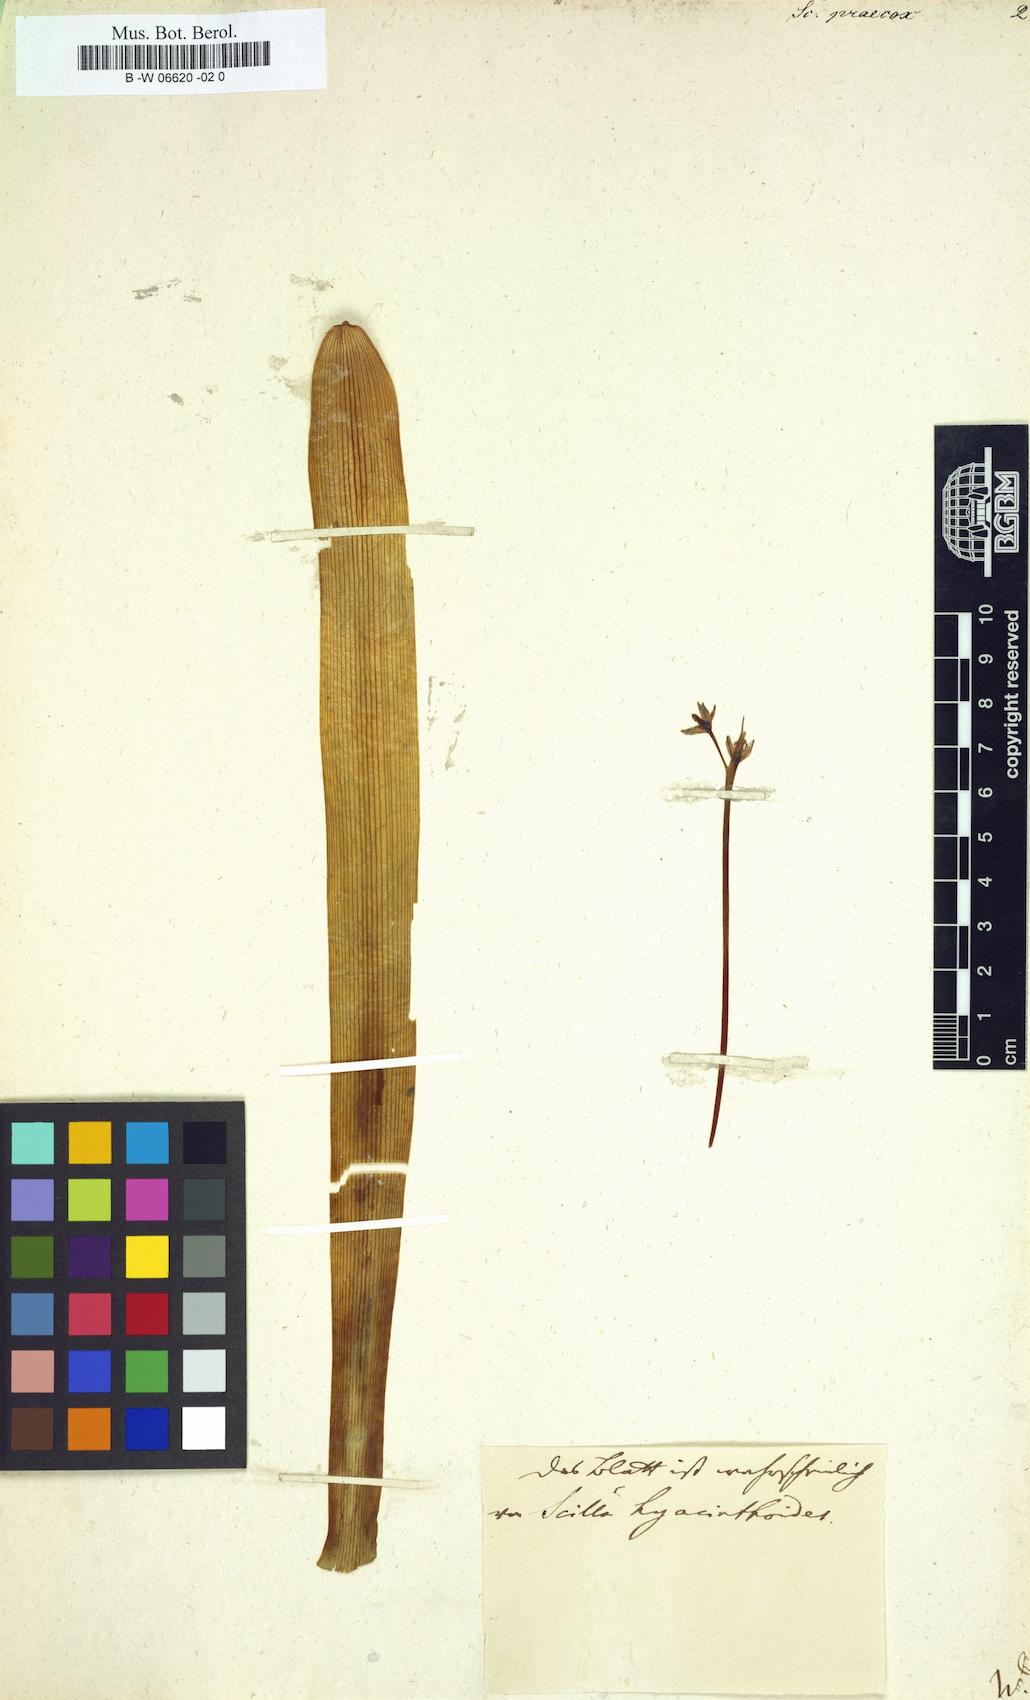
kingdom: Plantae
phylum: Tracheophyta
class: Liliopsida
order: Asparagales
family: Asparagaceae
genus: Scilla
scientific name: Scilla
